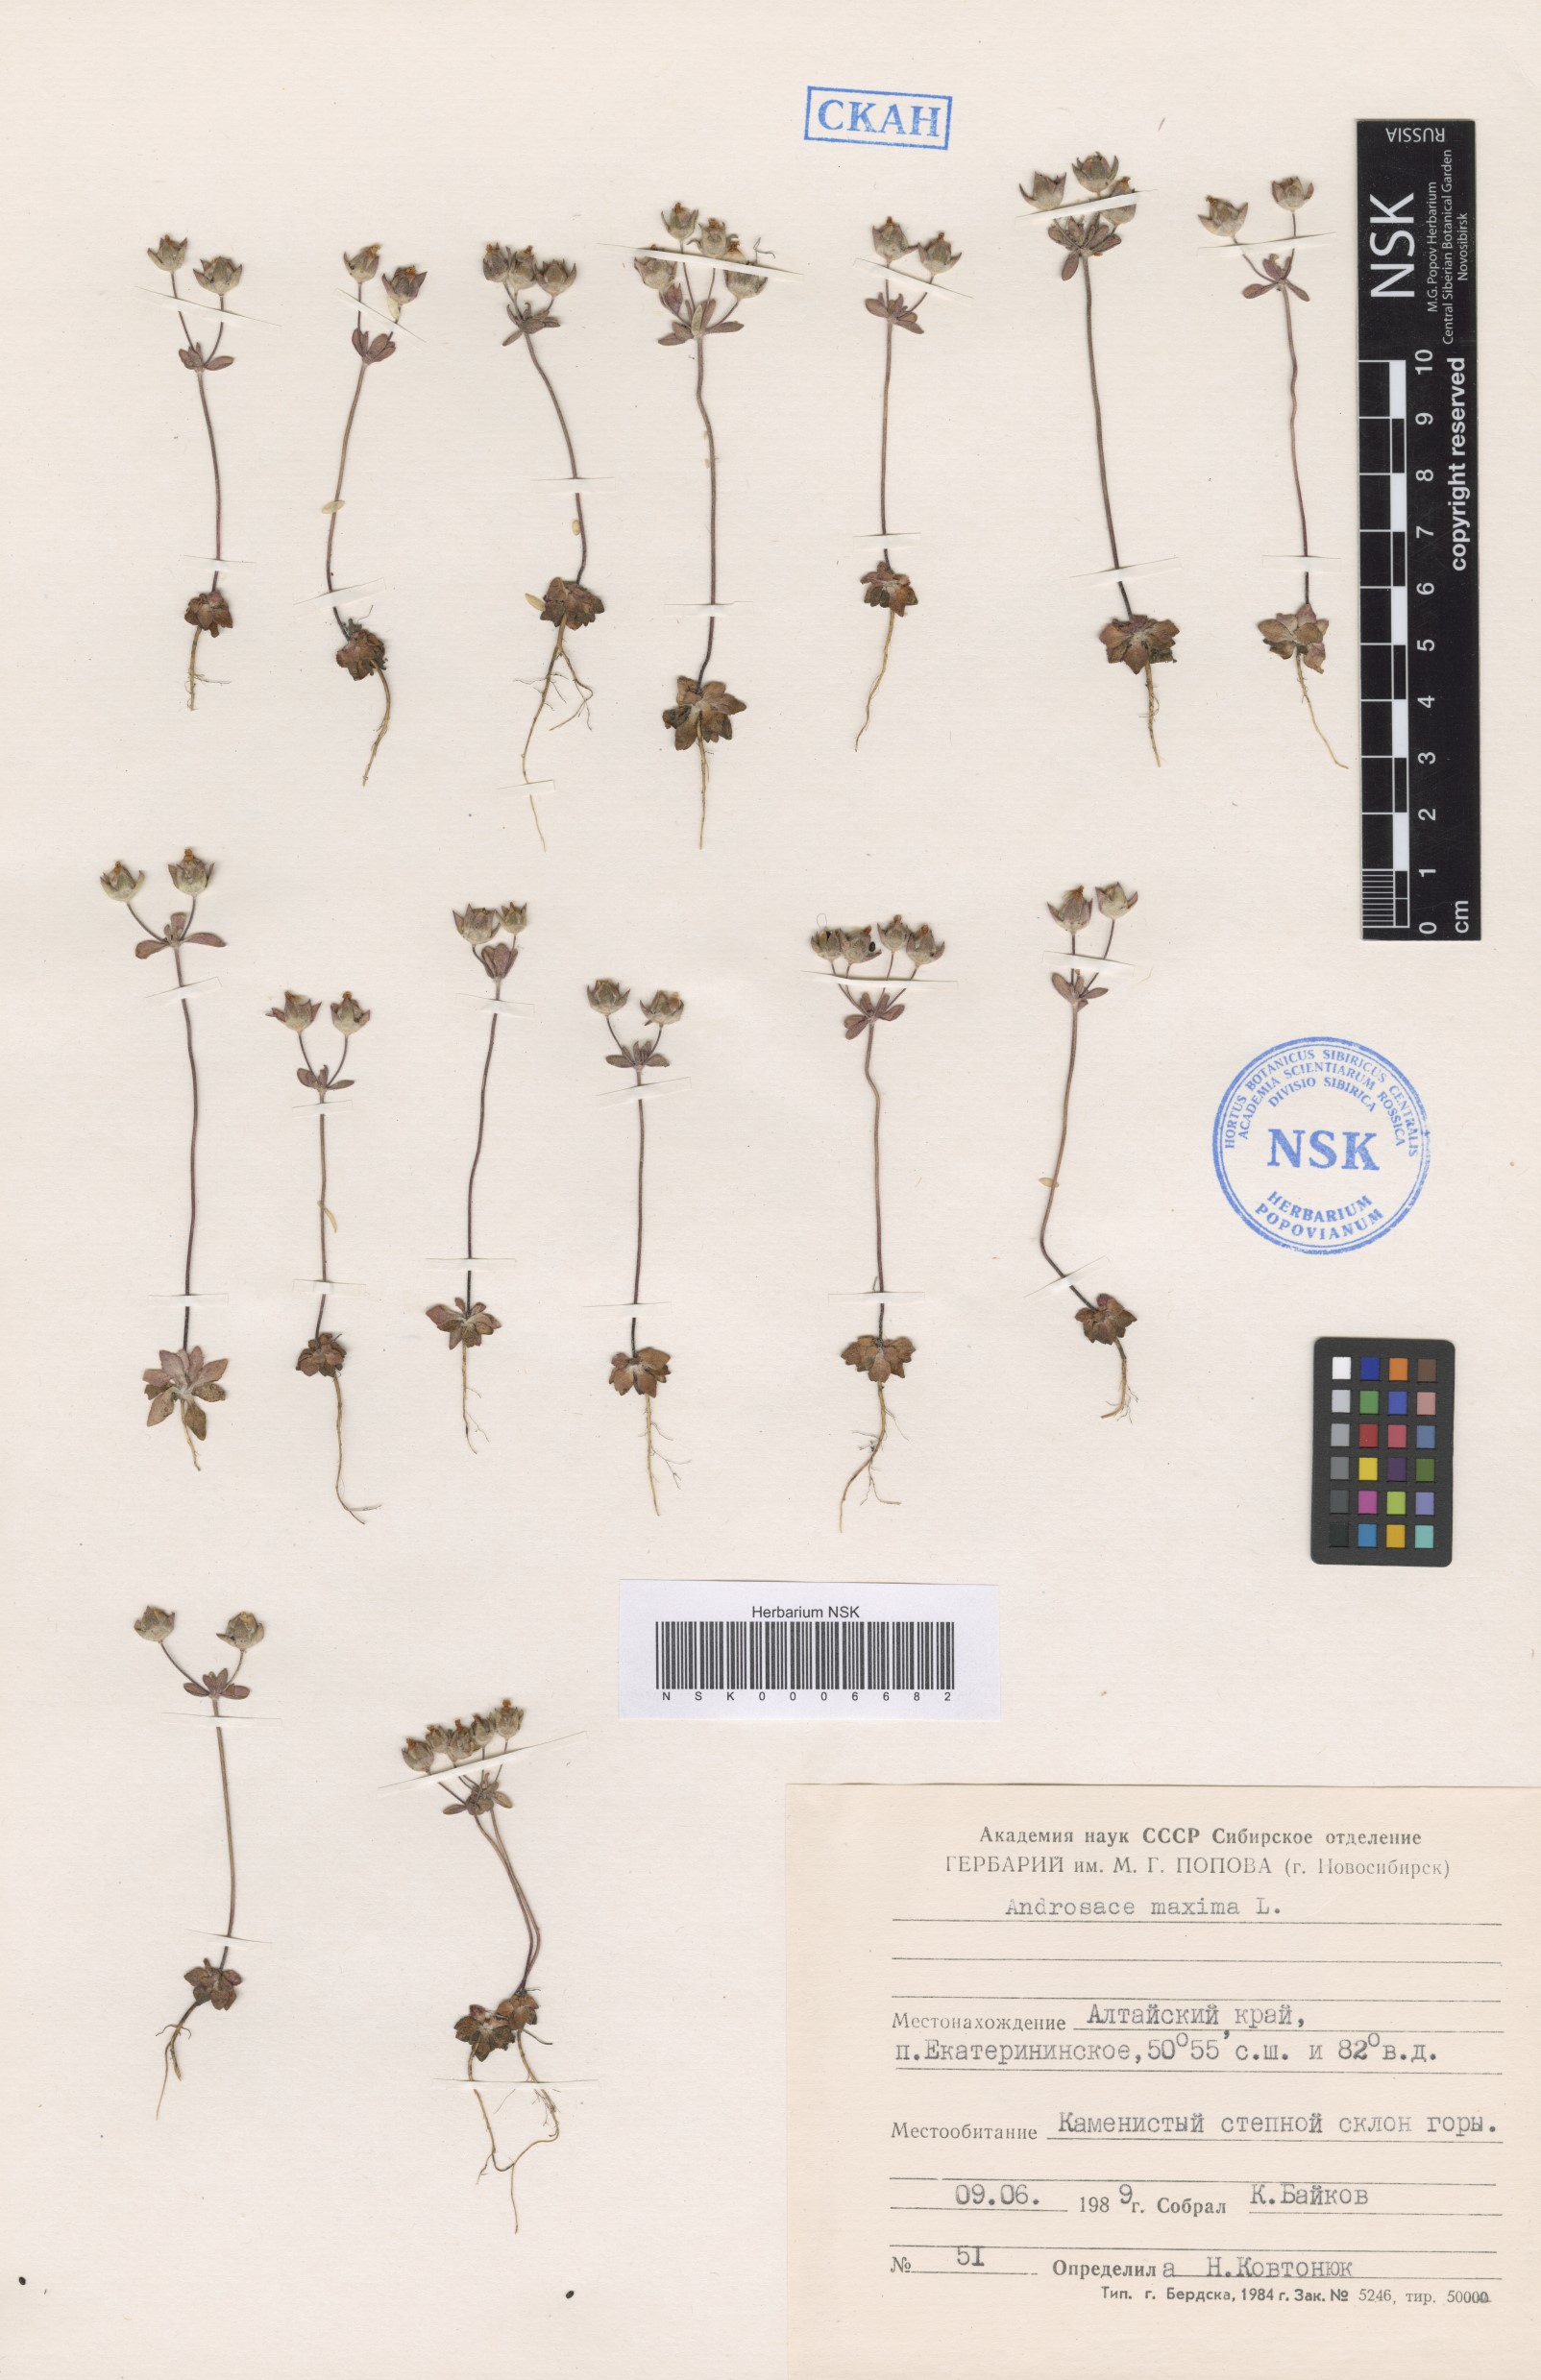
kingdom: Plantae
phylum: Tracheophyta
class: Magnoliopsida
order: Ericales
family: Primulaceae
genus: Androsace
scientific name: Androsace maxima
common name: Annual androsace
